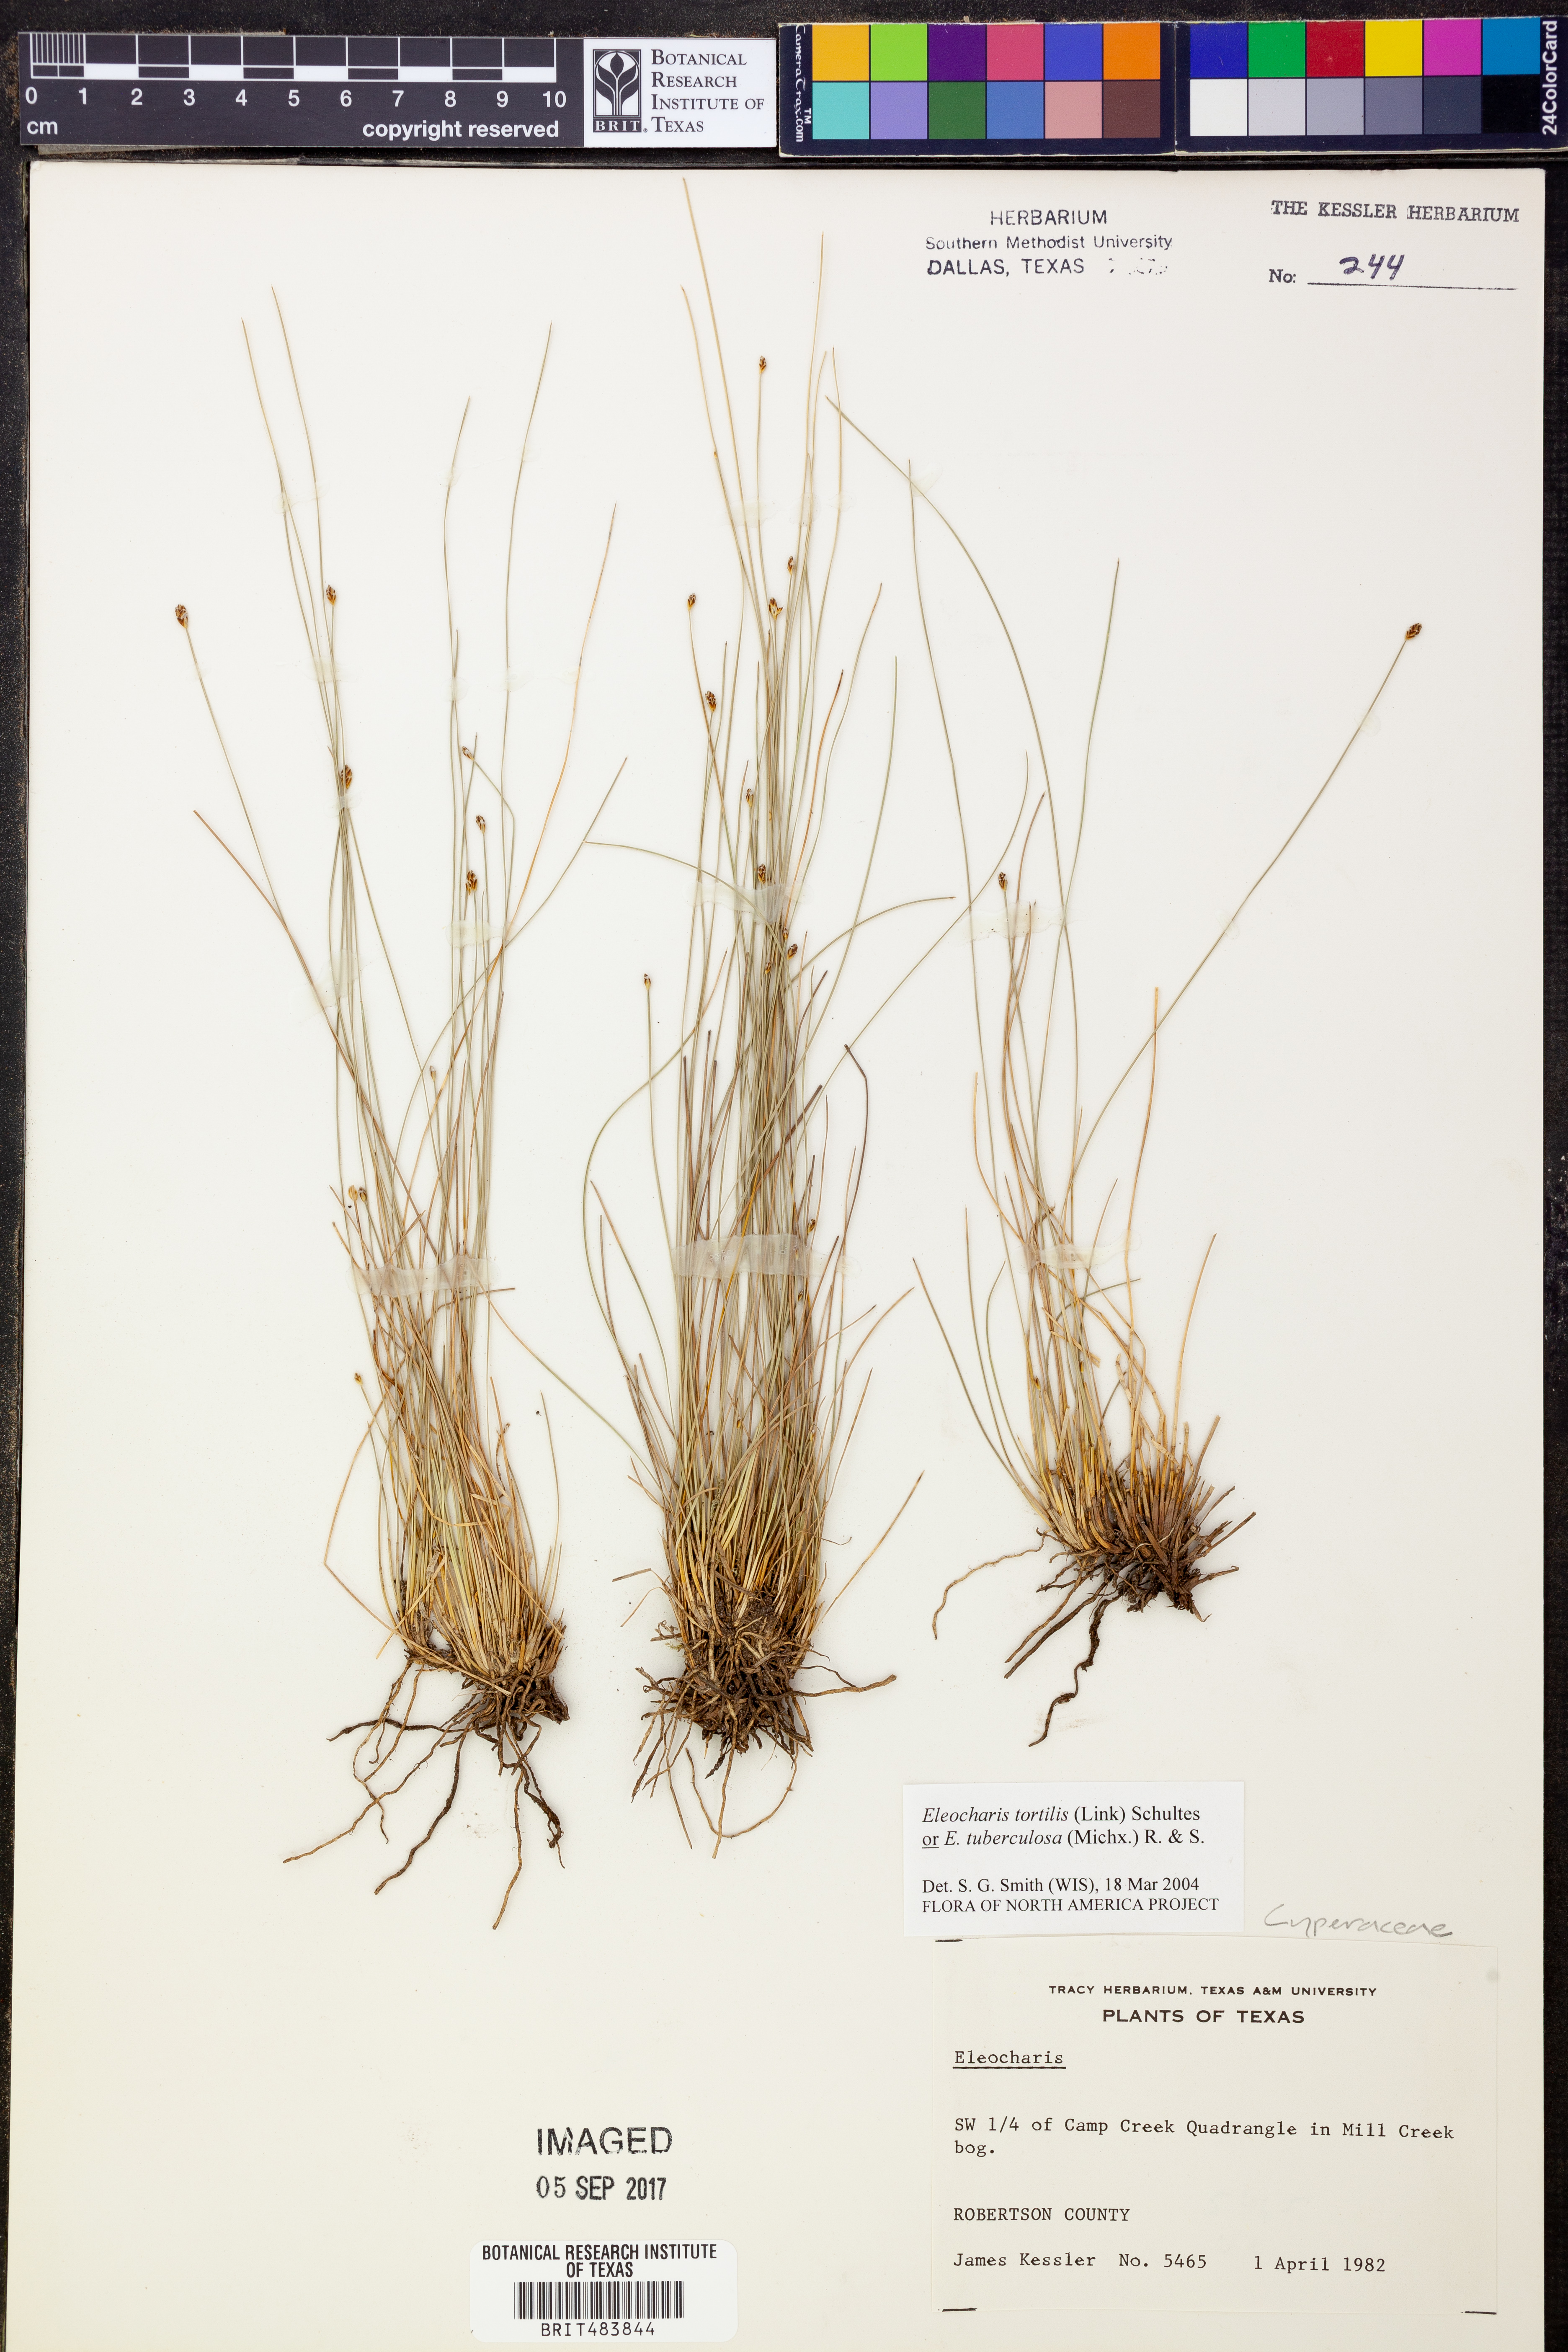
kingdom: Plantae
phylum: Tracheophyta
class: Liliopsida
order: Poales
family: Cyperaceae
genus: Eleocharis
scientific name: Eleocharis
